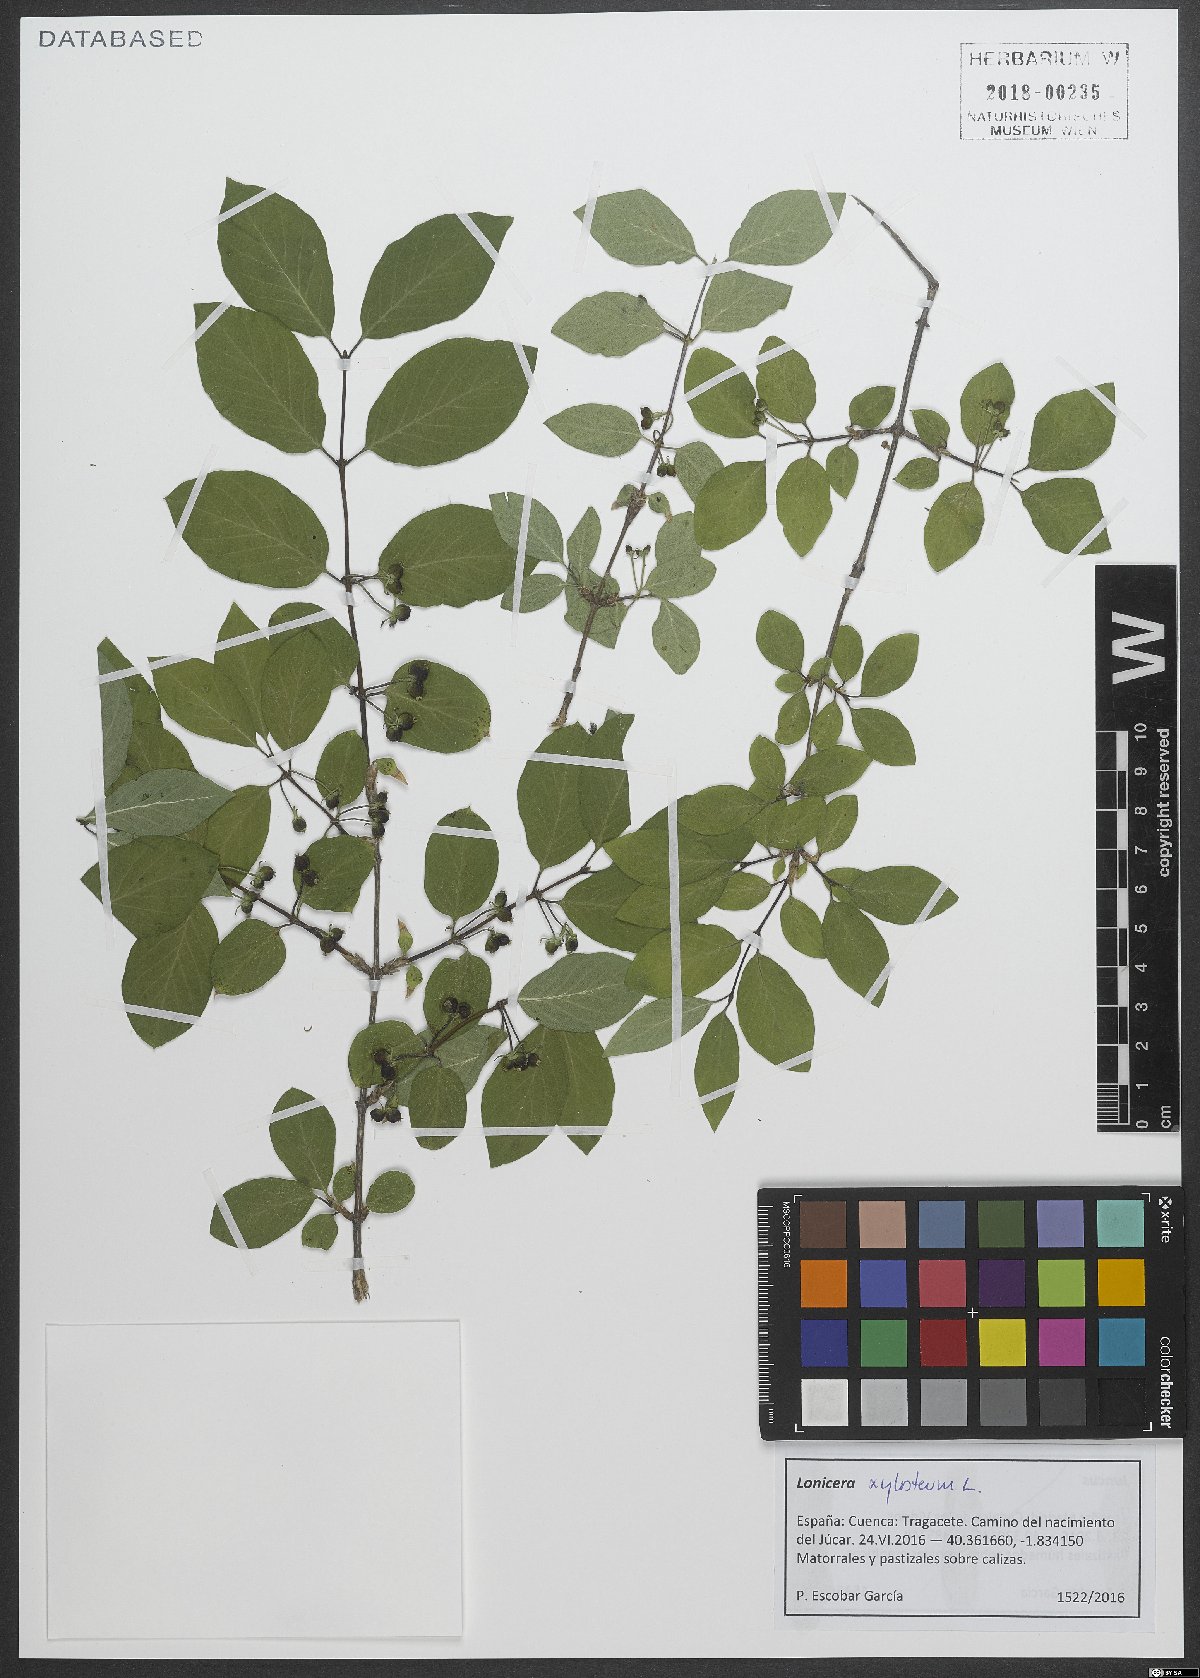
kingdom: Plantae
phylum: Tracheophyta
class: Magnoliopsida
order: Dipsacales
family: Caprifoliaceae
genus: Lonicera
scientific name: Lonicera xylosteum
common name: Fly honeysuckle
